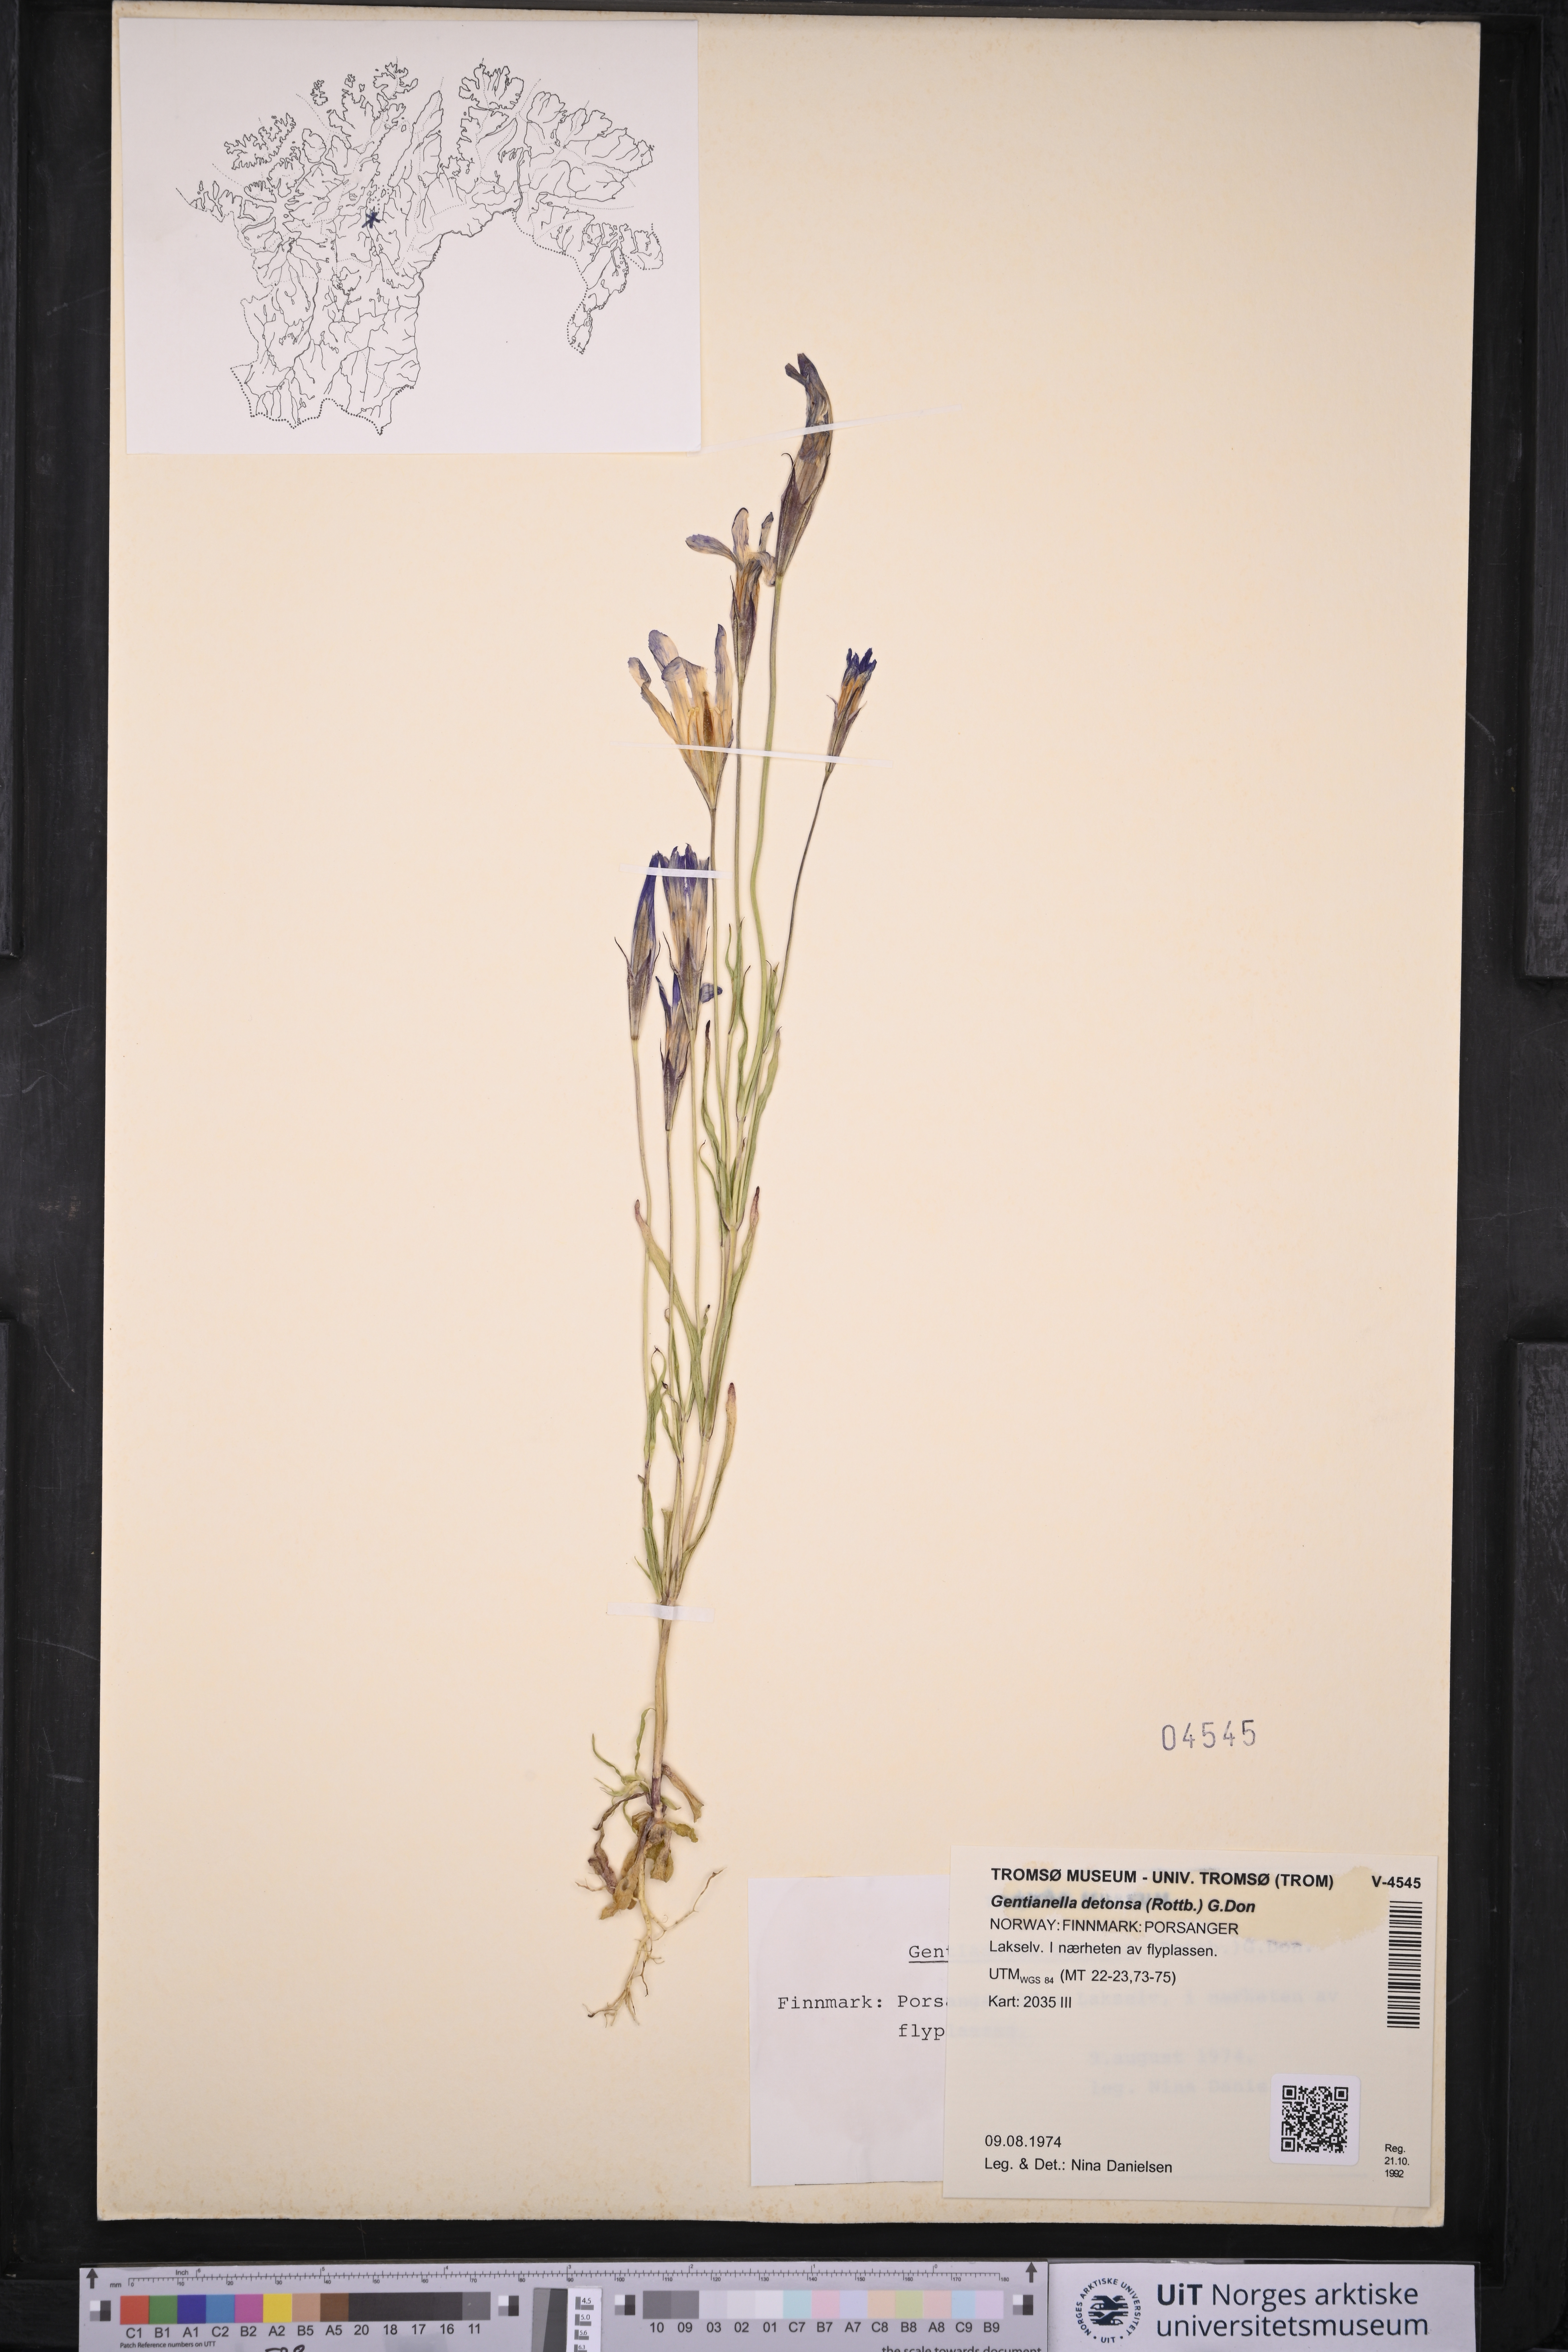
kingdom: Plantae
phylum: Tracheophyta
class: Magnoliopsida
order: Gentianales
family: Gentianaceae
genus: Gentianopsis
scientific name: Gentianopsis detonsa
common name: Fringed-gentian
